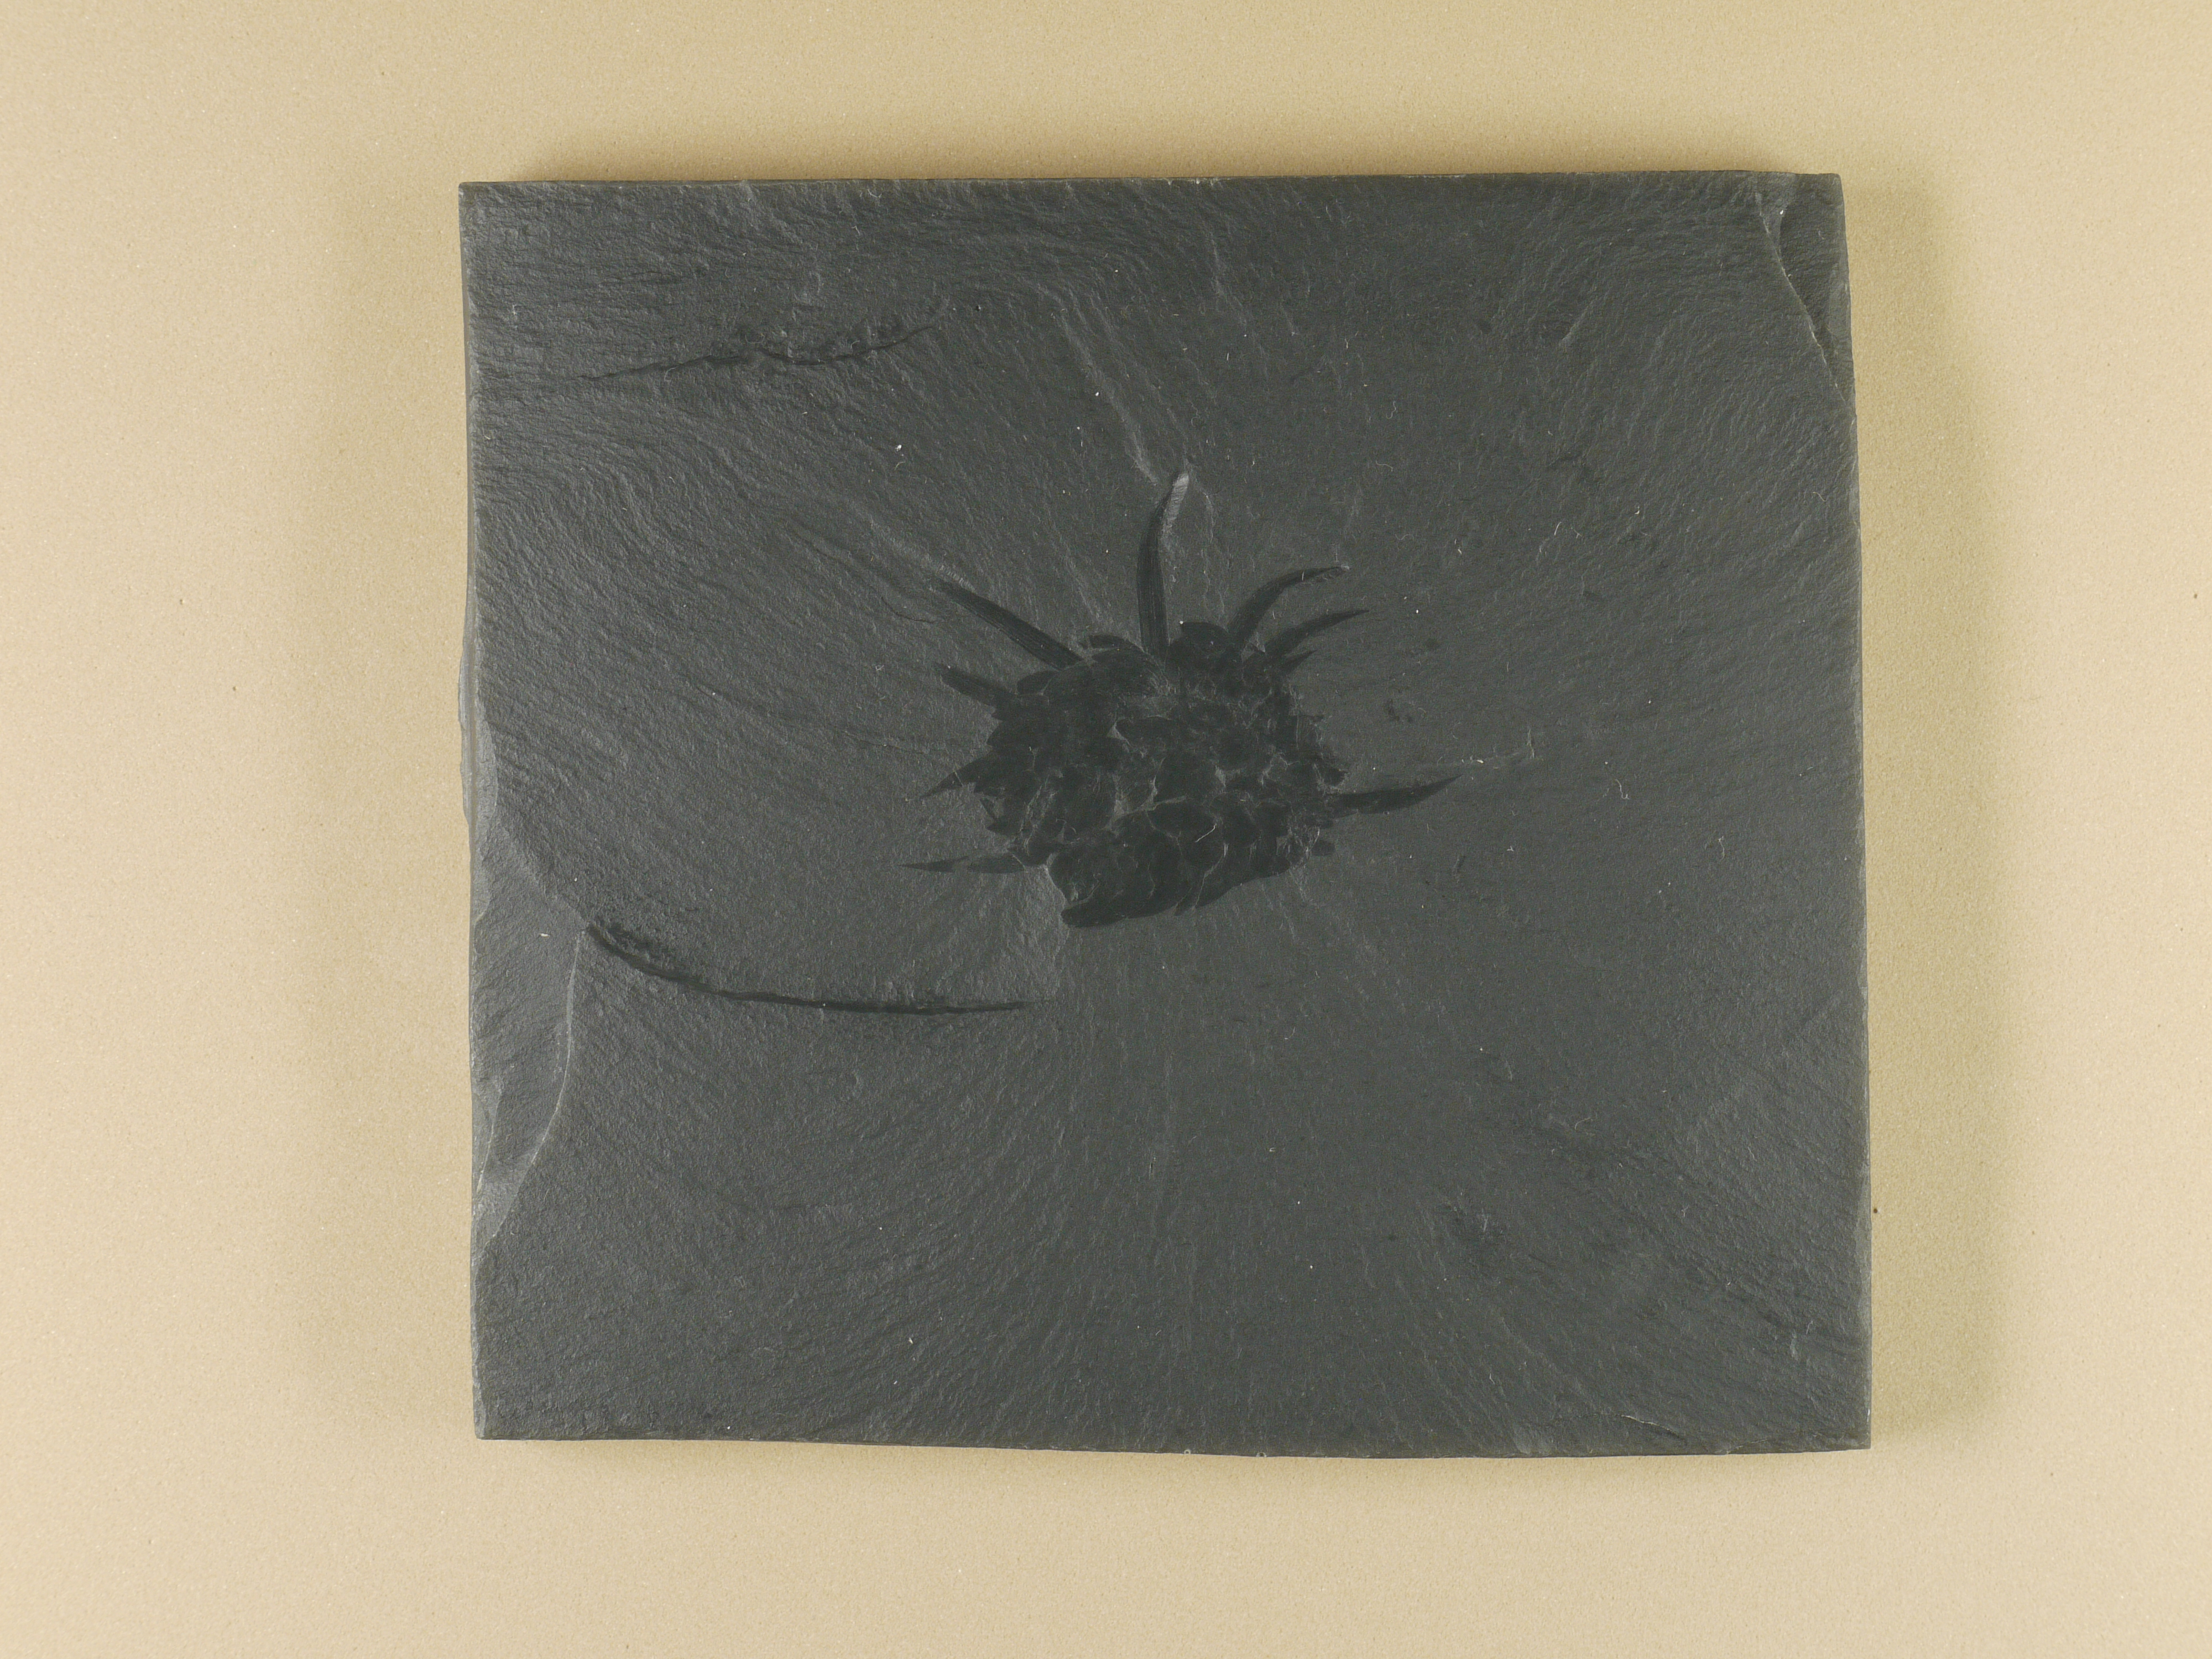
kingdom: Animalia
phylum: Annelida
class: Polychaeta
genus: Wiwaxia
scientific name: Wiwaxia corrugata
